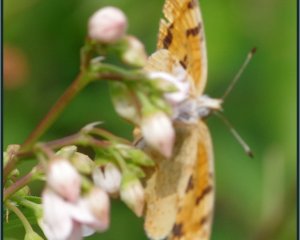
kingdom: Animalia
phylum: Arthropoda
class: Insecta
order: Lepidoptera
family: Nymphalidae
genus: Phyciodes
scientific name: Phyciodes batesii
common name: Tawny Crescent
